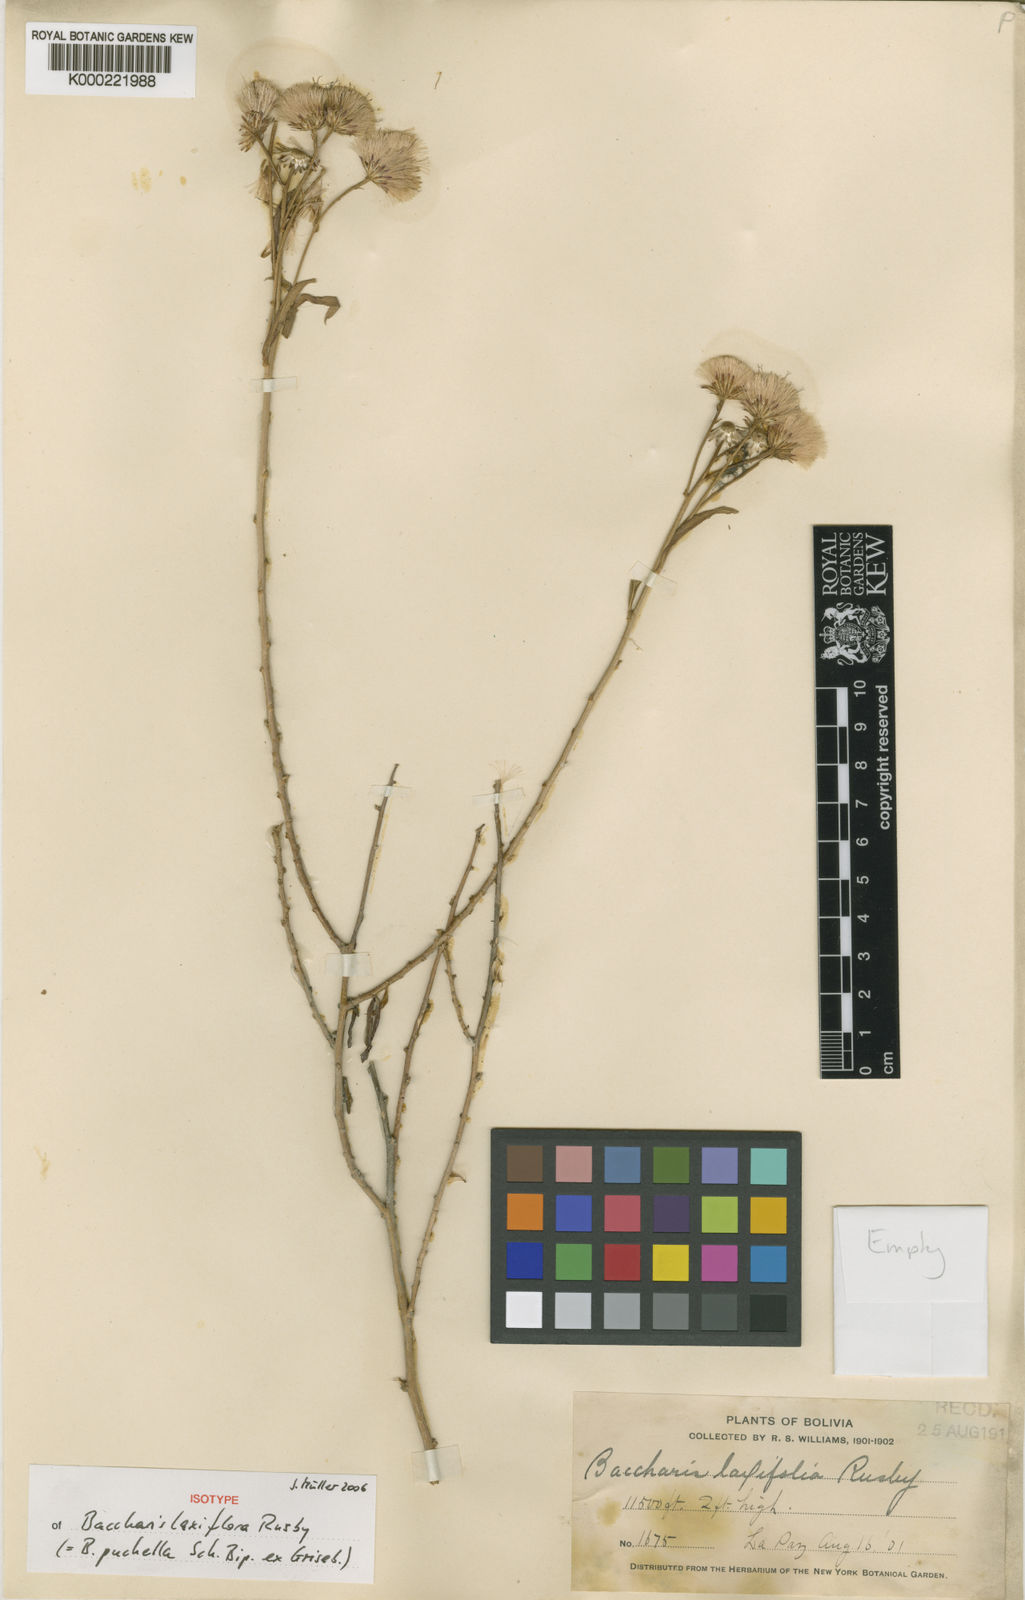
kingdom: Plantae
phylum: Tracheophyta
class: Magnoliopsida
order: Asterales
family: Asteraceae
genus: Baccharis
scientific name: Baccharis
